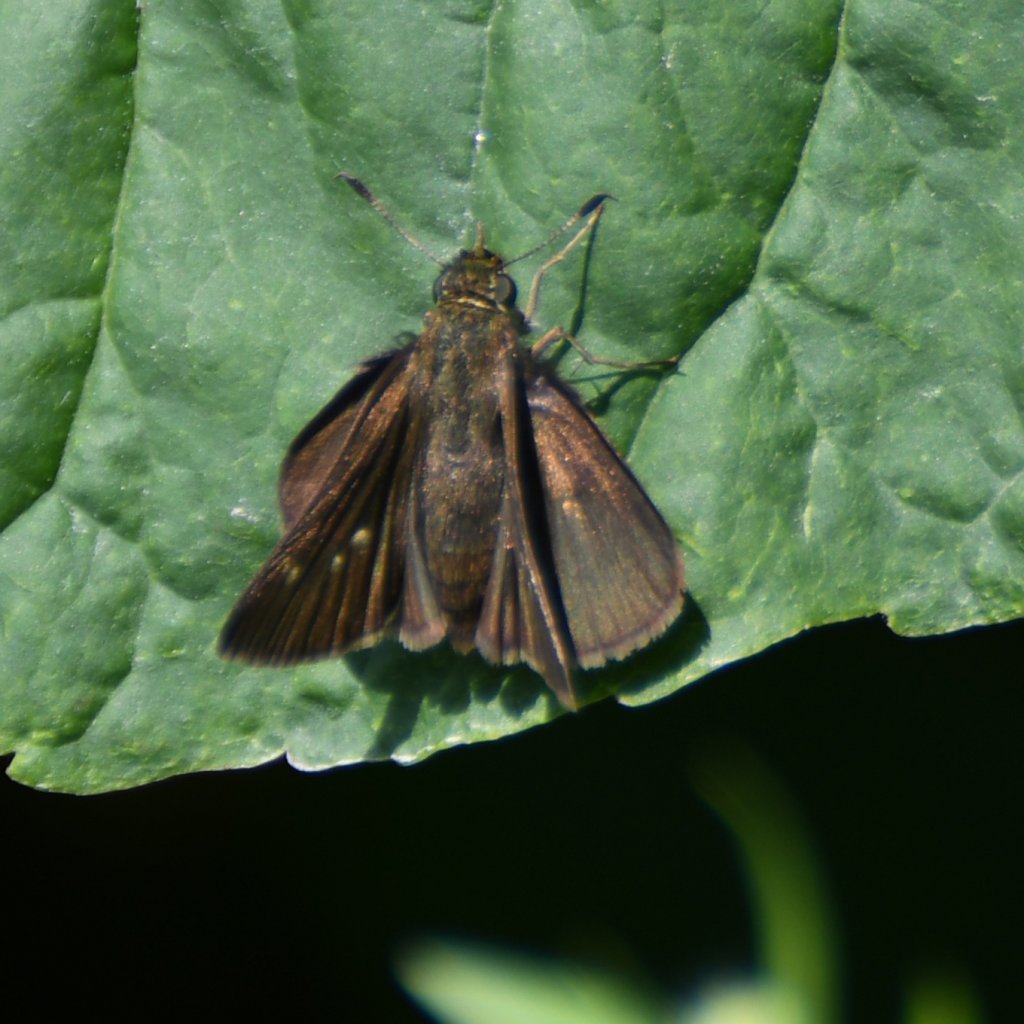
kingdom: Animalia
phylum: Arthropoda
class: Insecta
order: Lepidoptera
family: Hesperiidae
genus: Euphyes
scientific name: Euphyes vestris
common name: Dun Skipper
